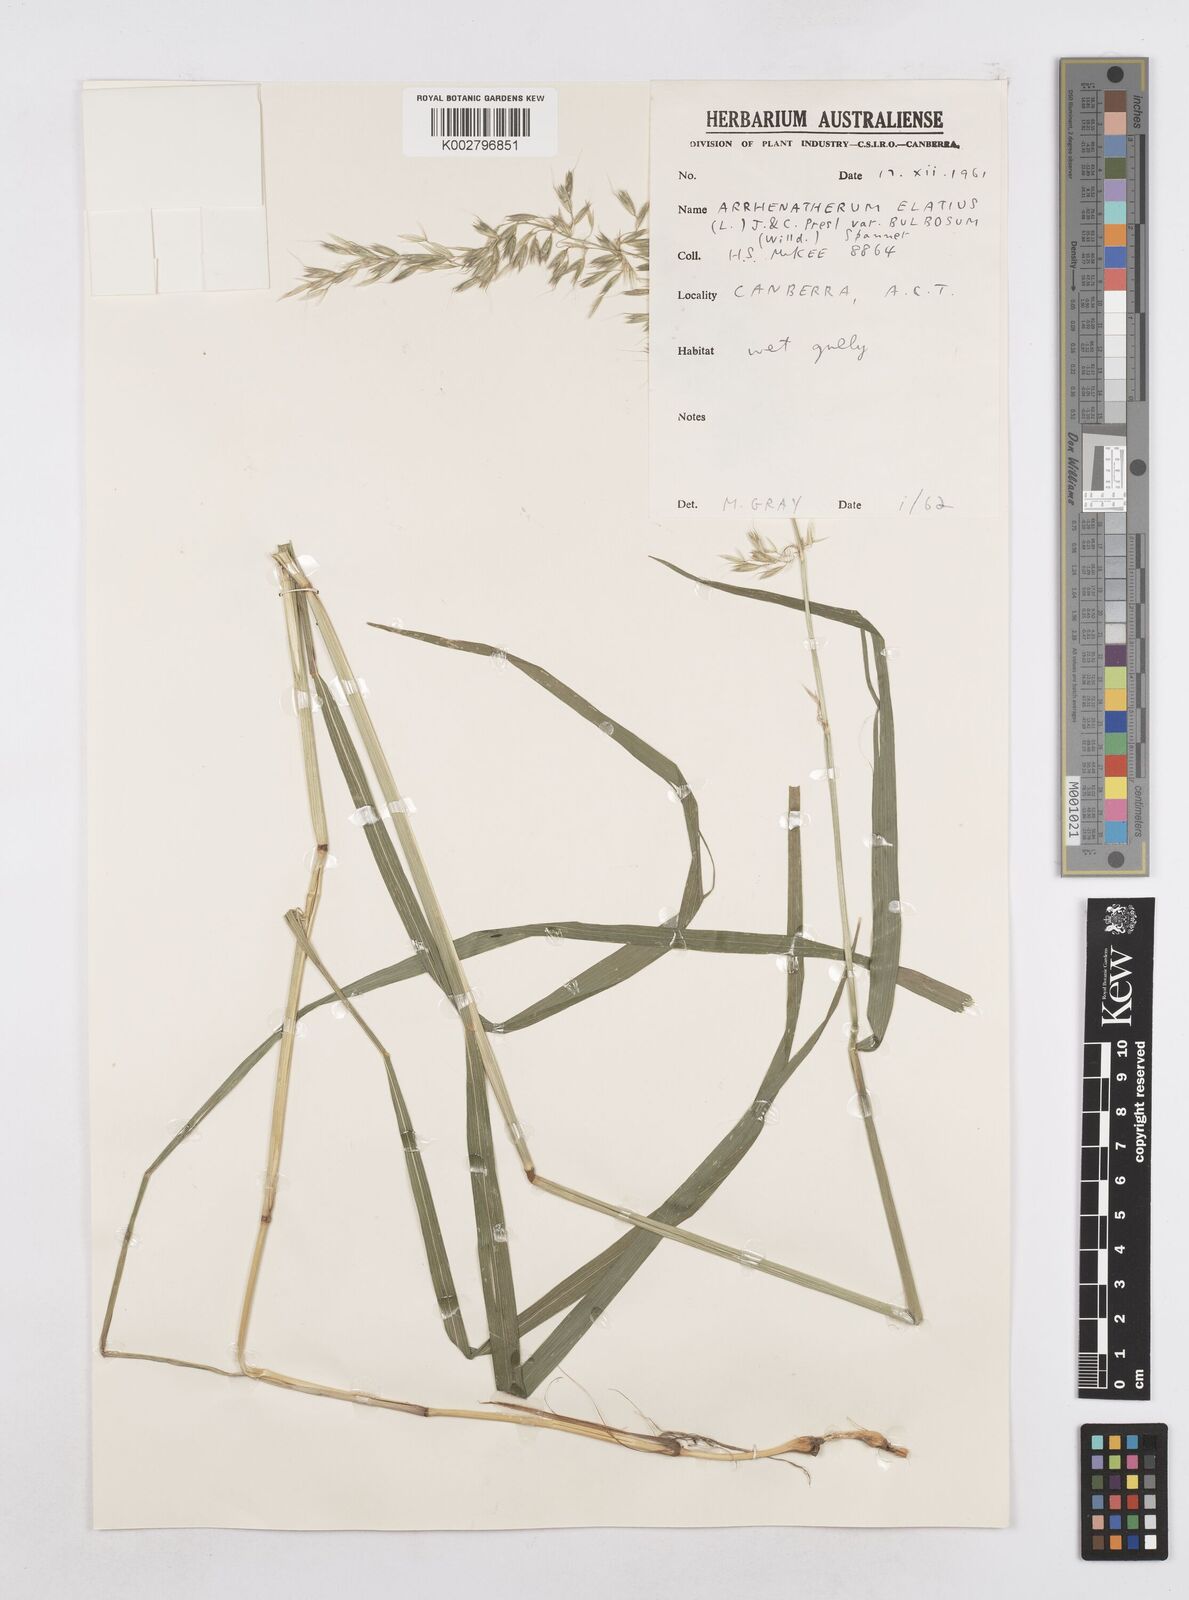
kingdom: Plantae
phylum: Tracheophyta
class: Liliopsida
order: Poales
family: Poaceae
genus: Arrhenatherum
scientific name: Arrhenatherum elatius
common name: Tall oatgrass
